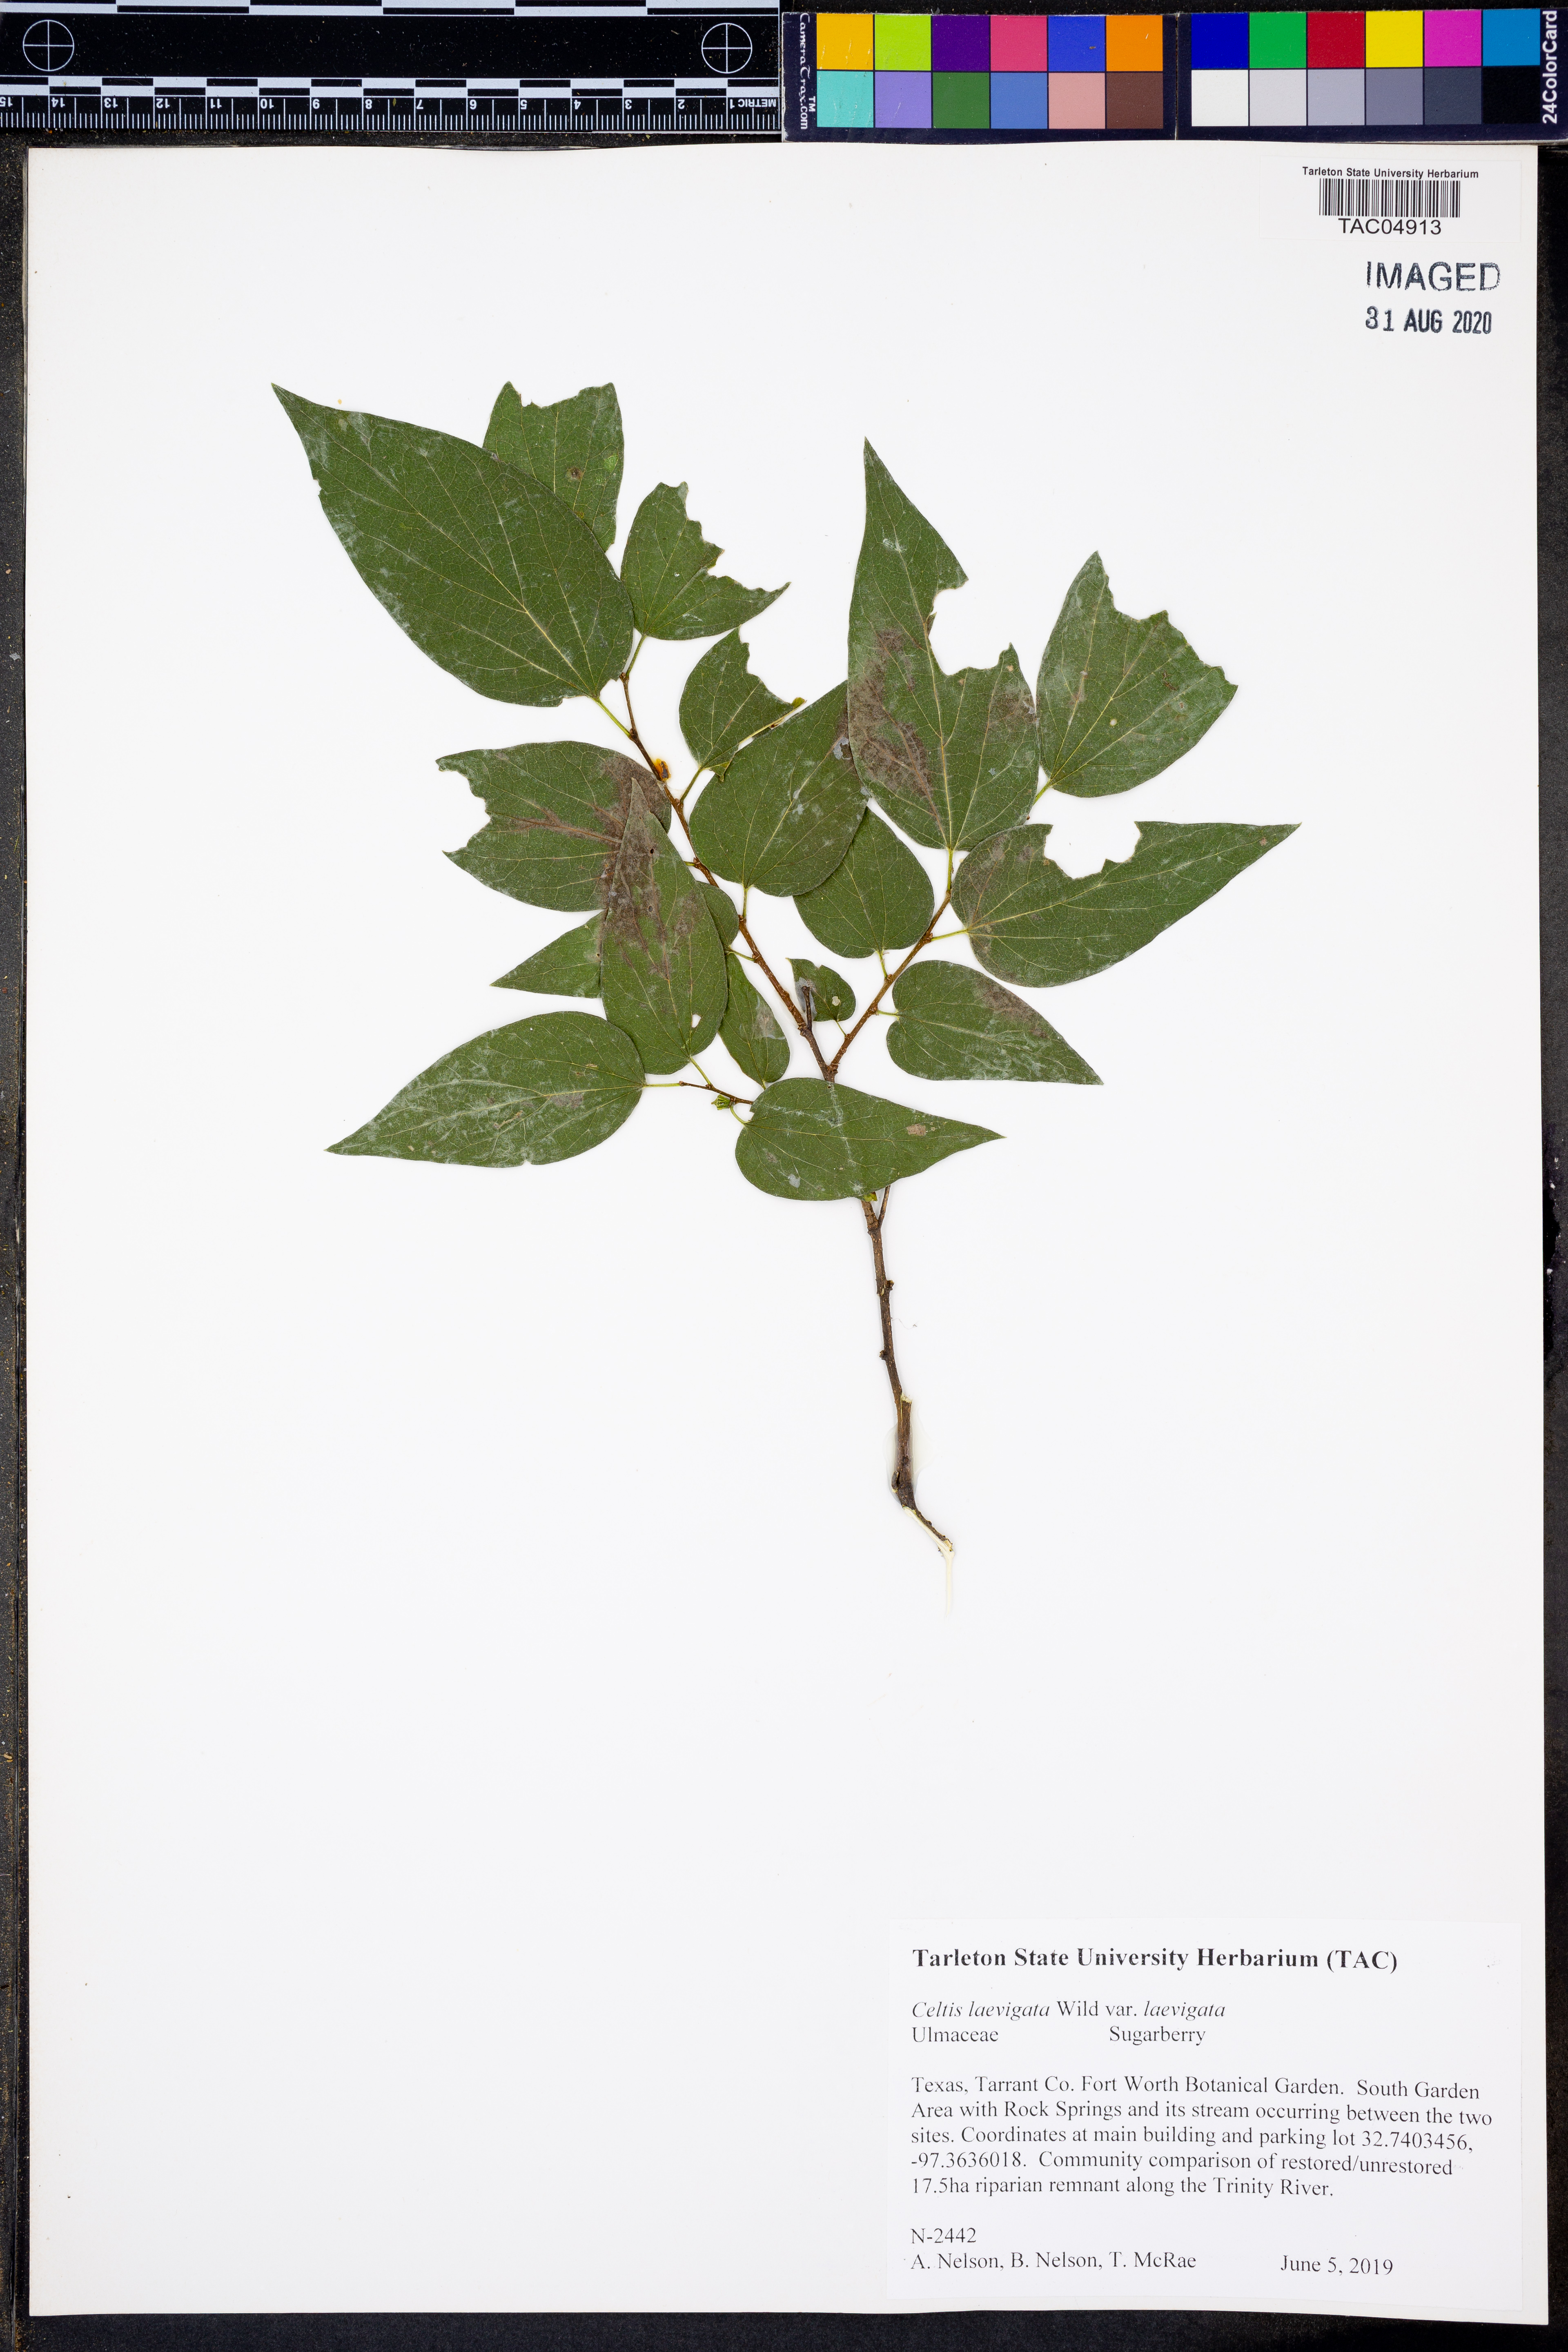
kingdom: Plantae
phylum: Tracheophyta
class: Magnoliopsida
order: Rosales
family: Cannabaceae
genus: Celtis
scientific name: Celtis laevigata
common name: Sugarberry
